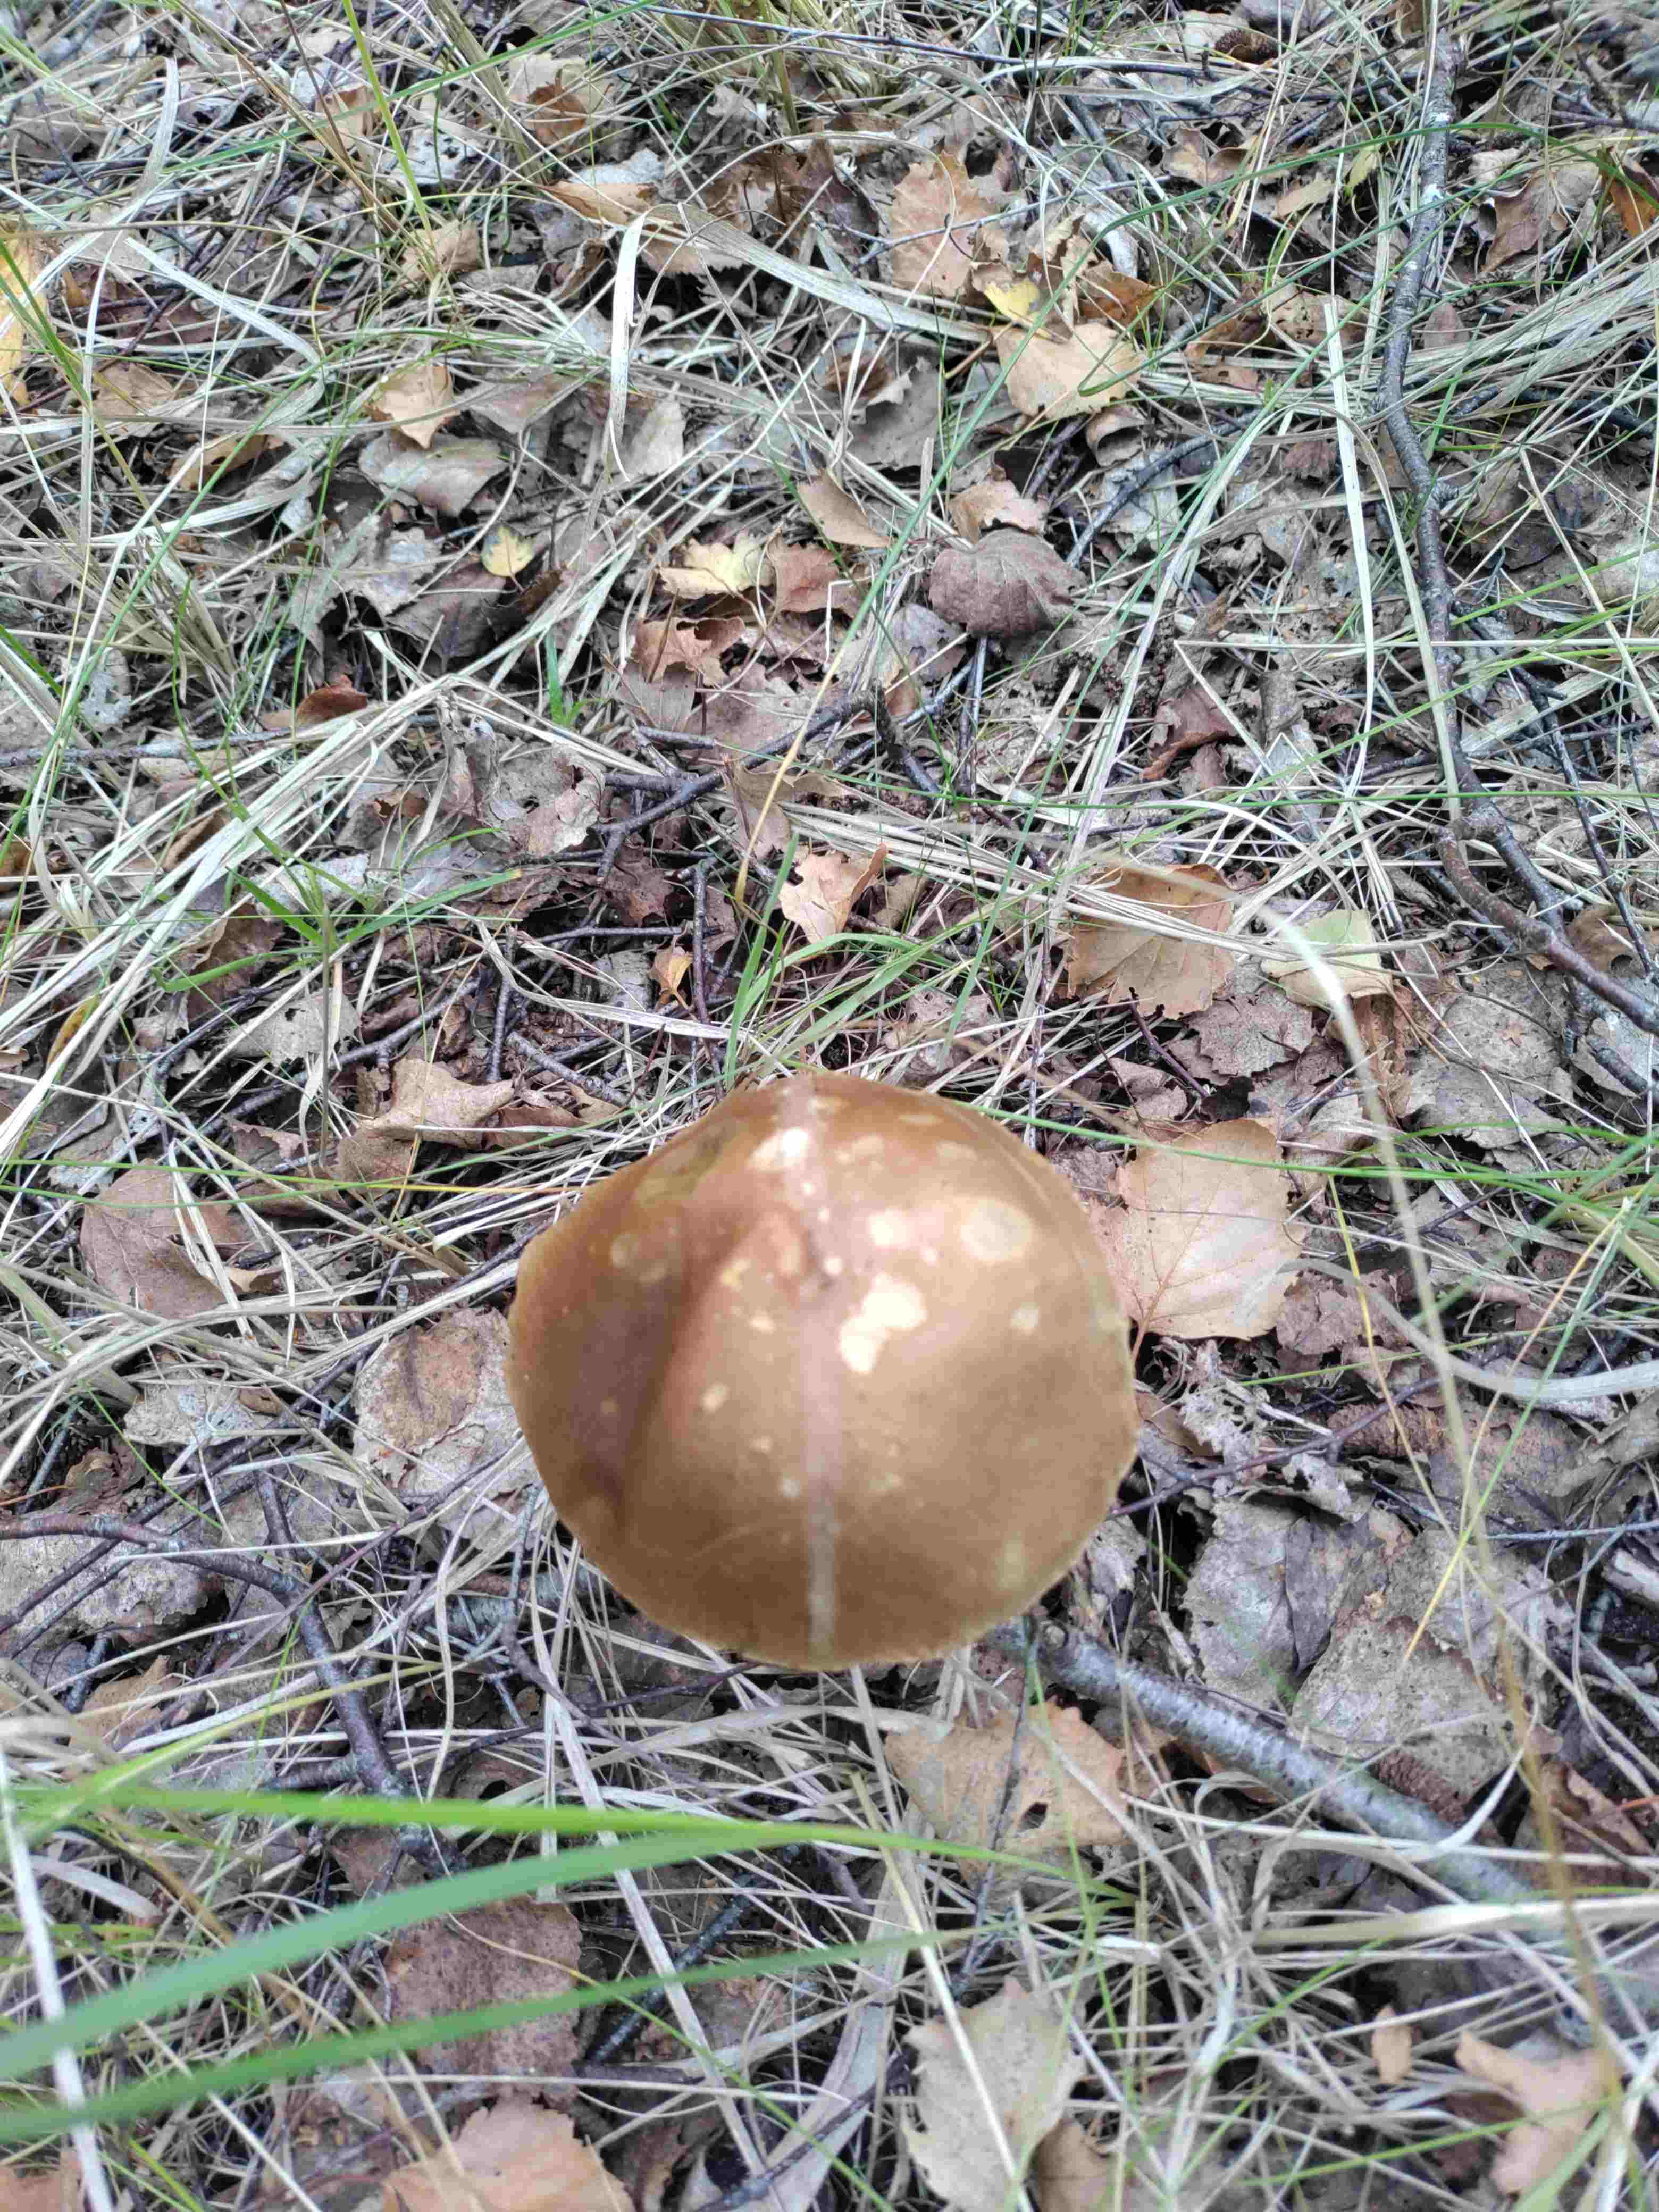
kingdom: Fungi
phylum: Basidiomycota
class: Agaricomycetes
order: Boletales
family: Boletaceae
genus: Leccinum
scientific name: Leccinum scabrum
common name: brun skælrørhat
